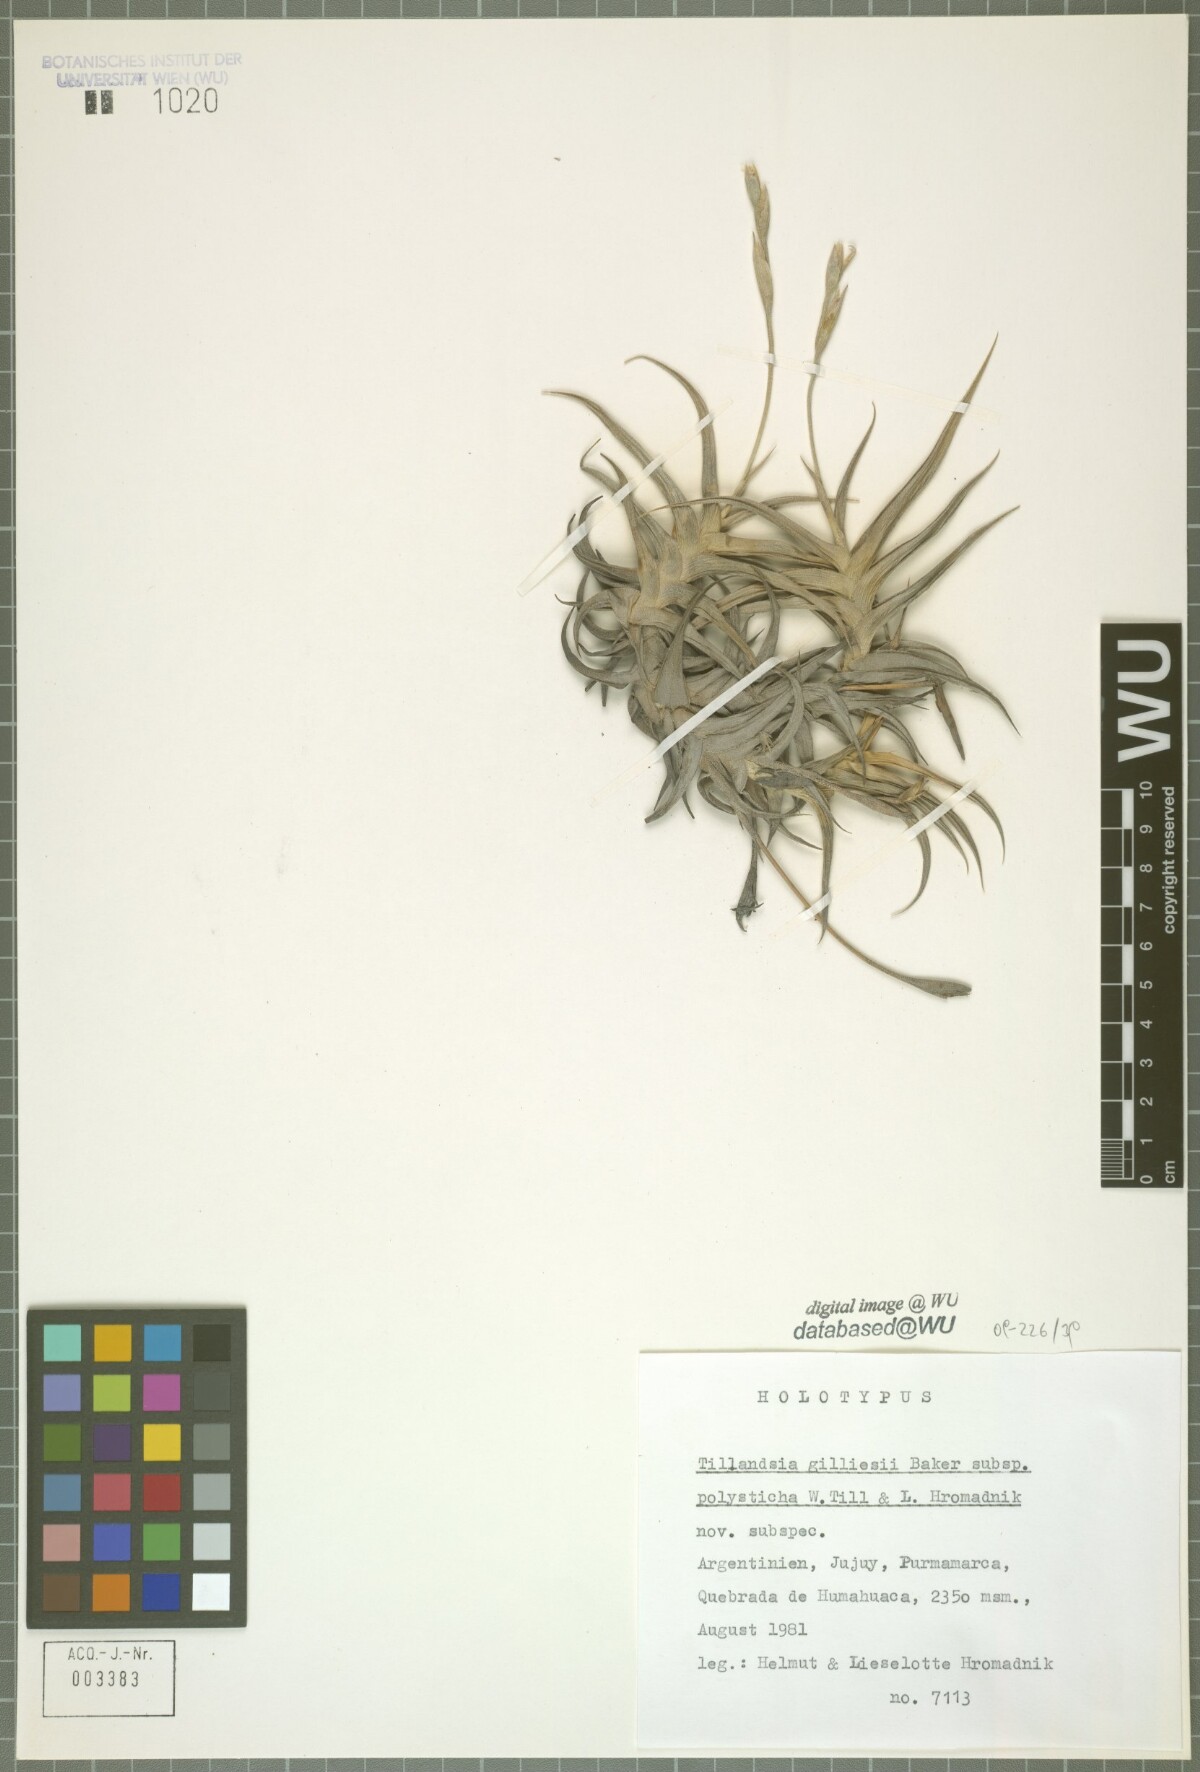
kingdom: Plantae
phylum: Tracheophyta
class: Liliopsida
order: Poales
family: Bromeliaceae
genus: Tillandsia
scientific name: Tillandsia gilliesii
